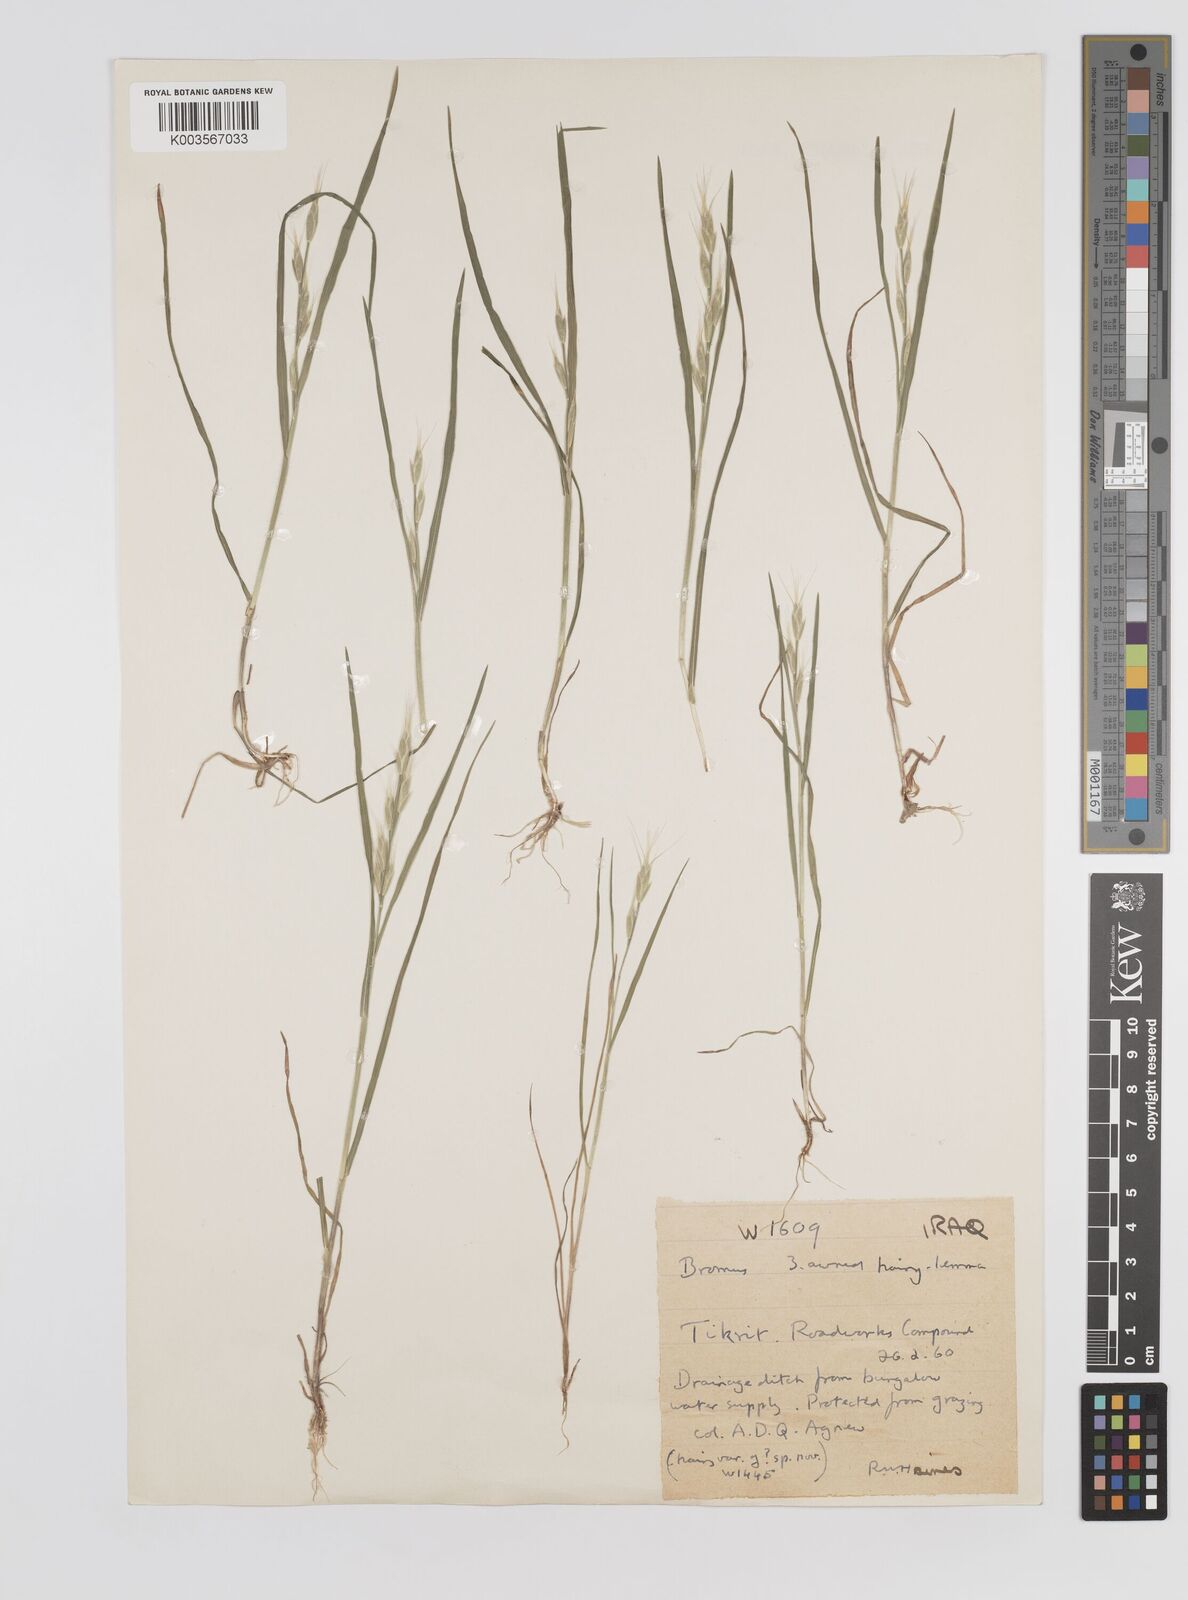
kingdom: Plantae
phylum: Tracheophyta
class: Liliopsida
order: Poales
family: Poaceae
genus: Bromus
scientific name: Bromus danthoniae
